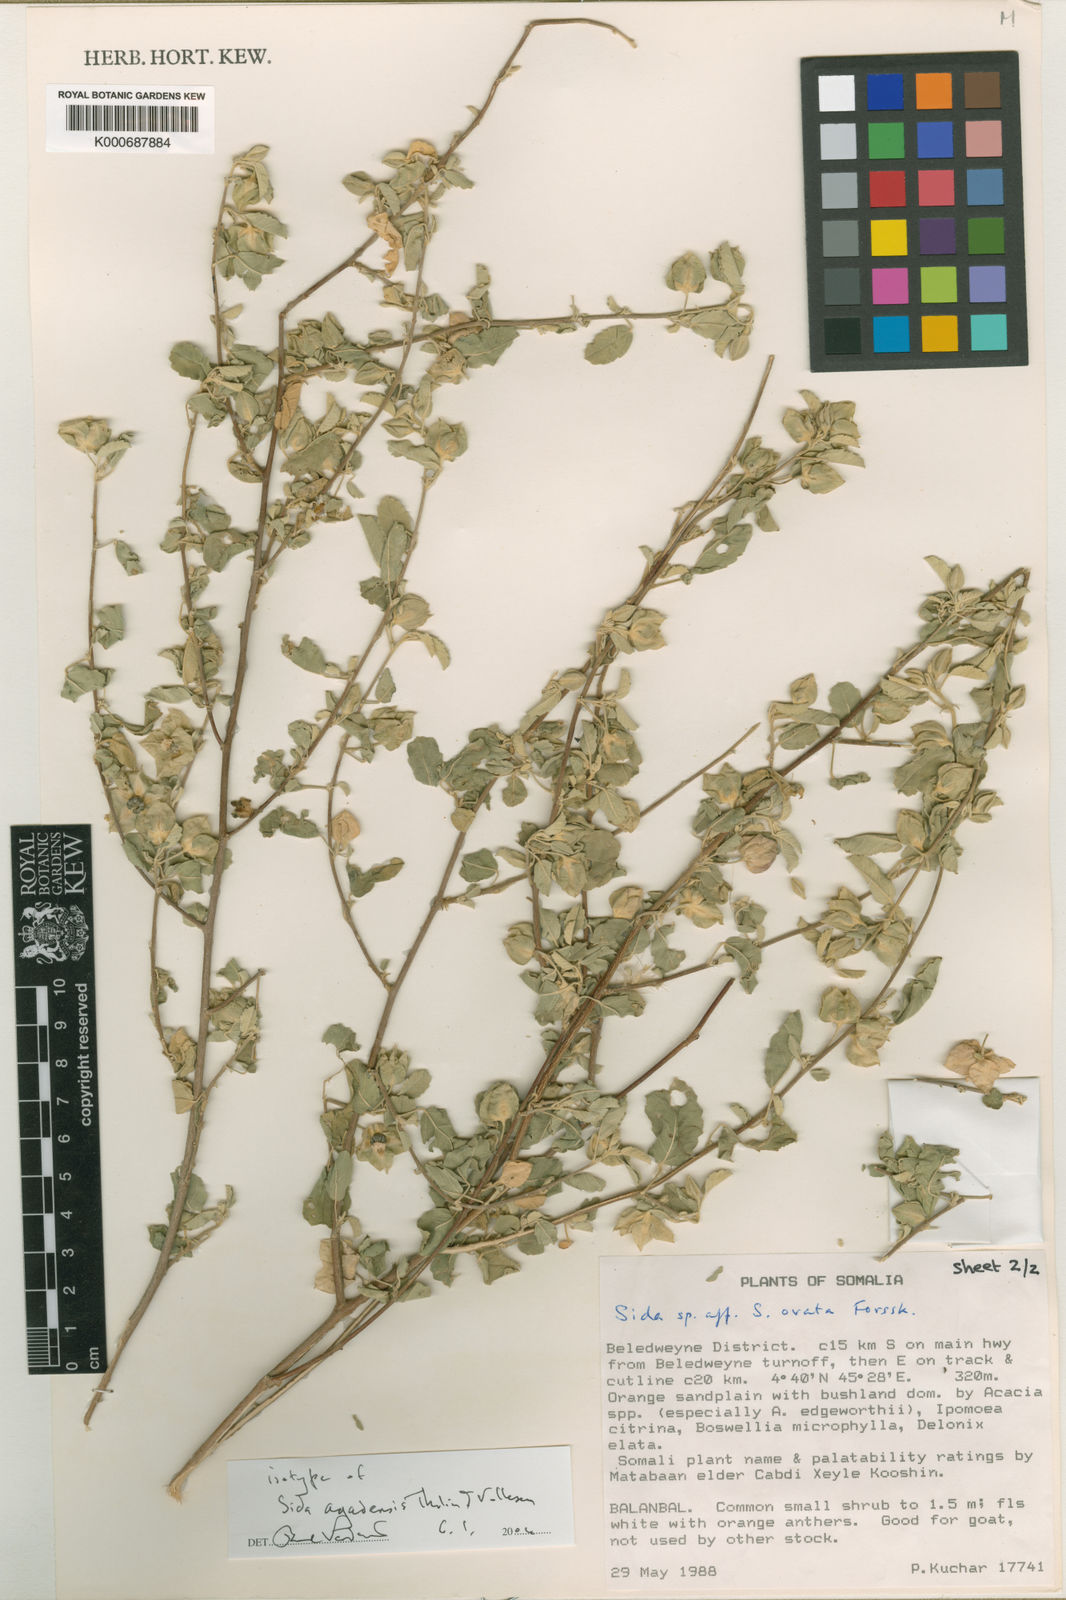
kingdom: Plantae
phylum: Tracheophyta
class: Magnoliopsida
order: Malvales
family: Malvaceae
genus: Sida
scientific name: Sida ogadensis
